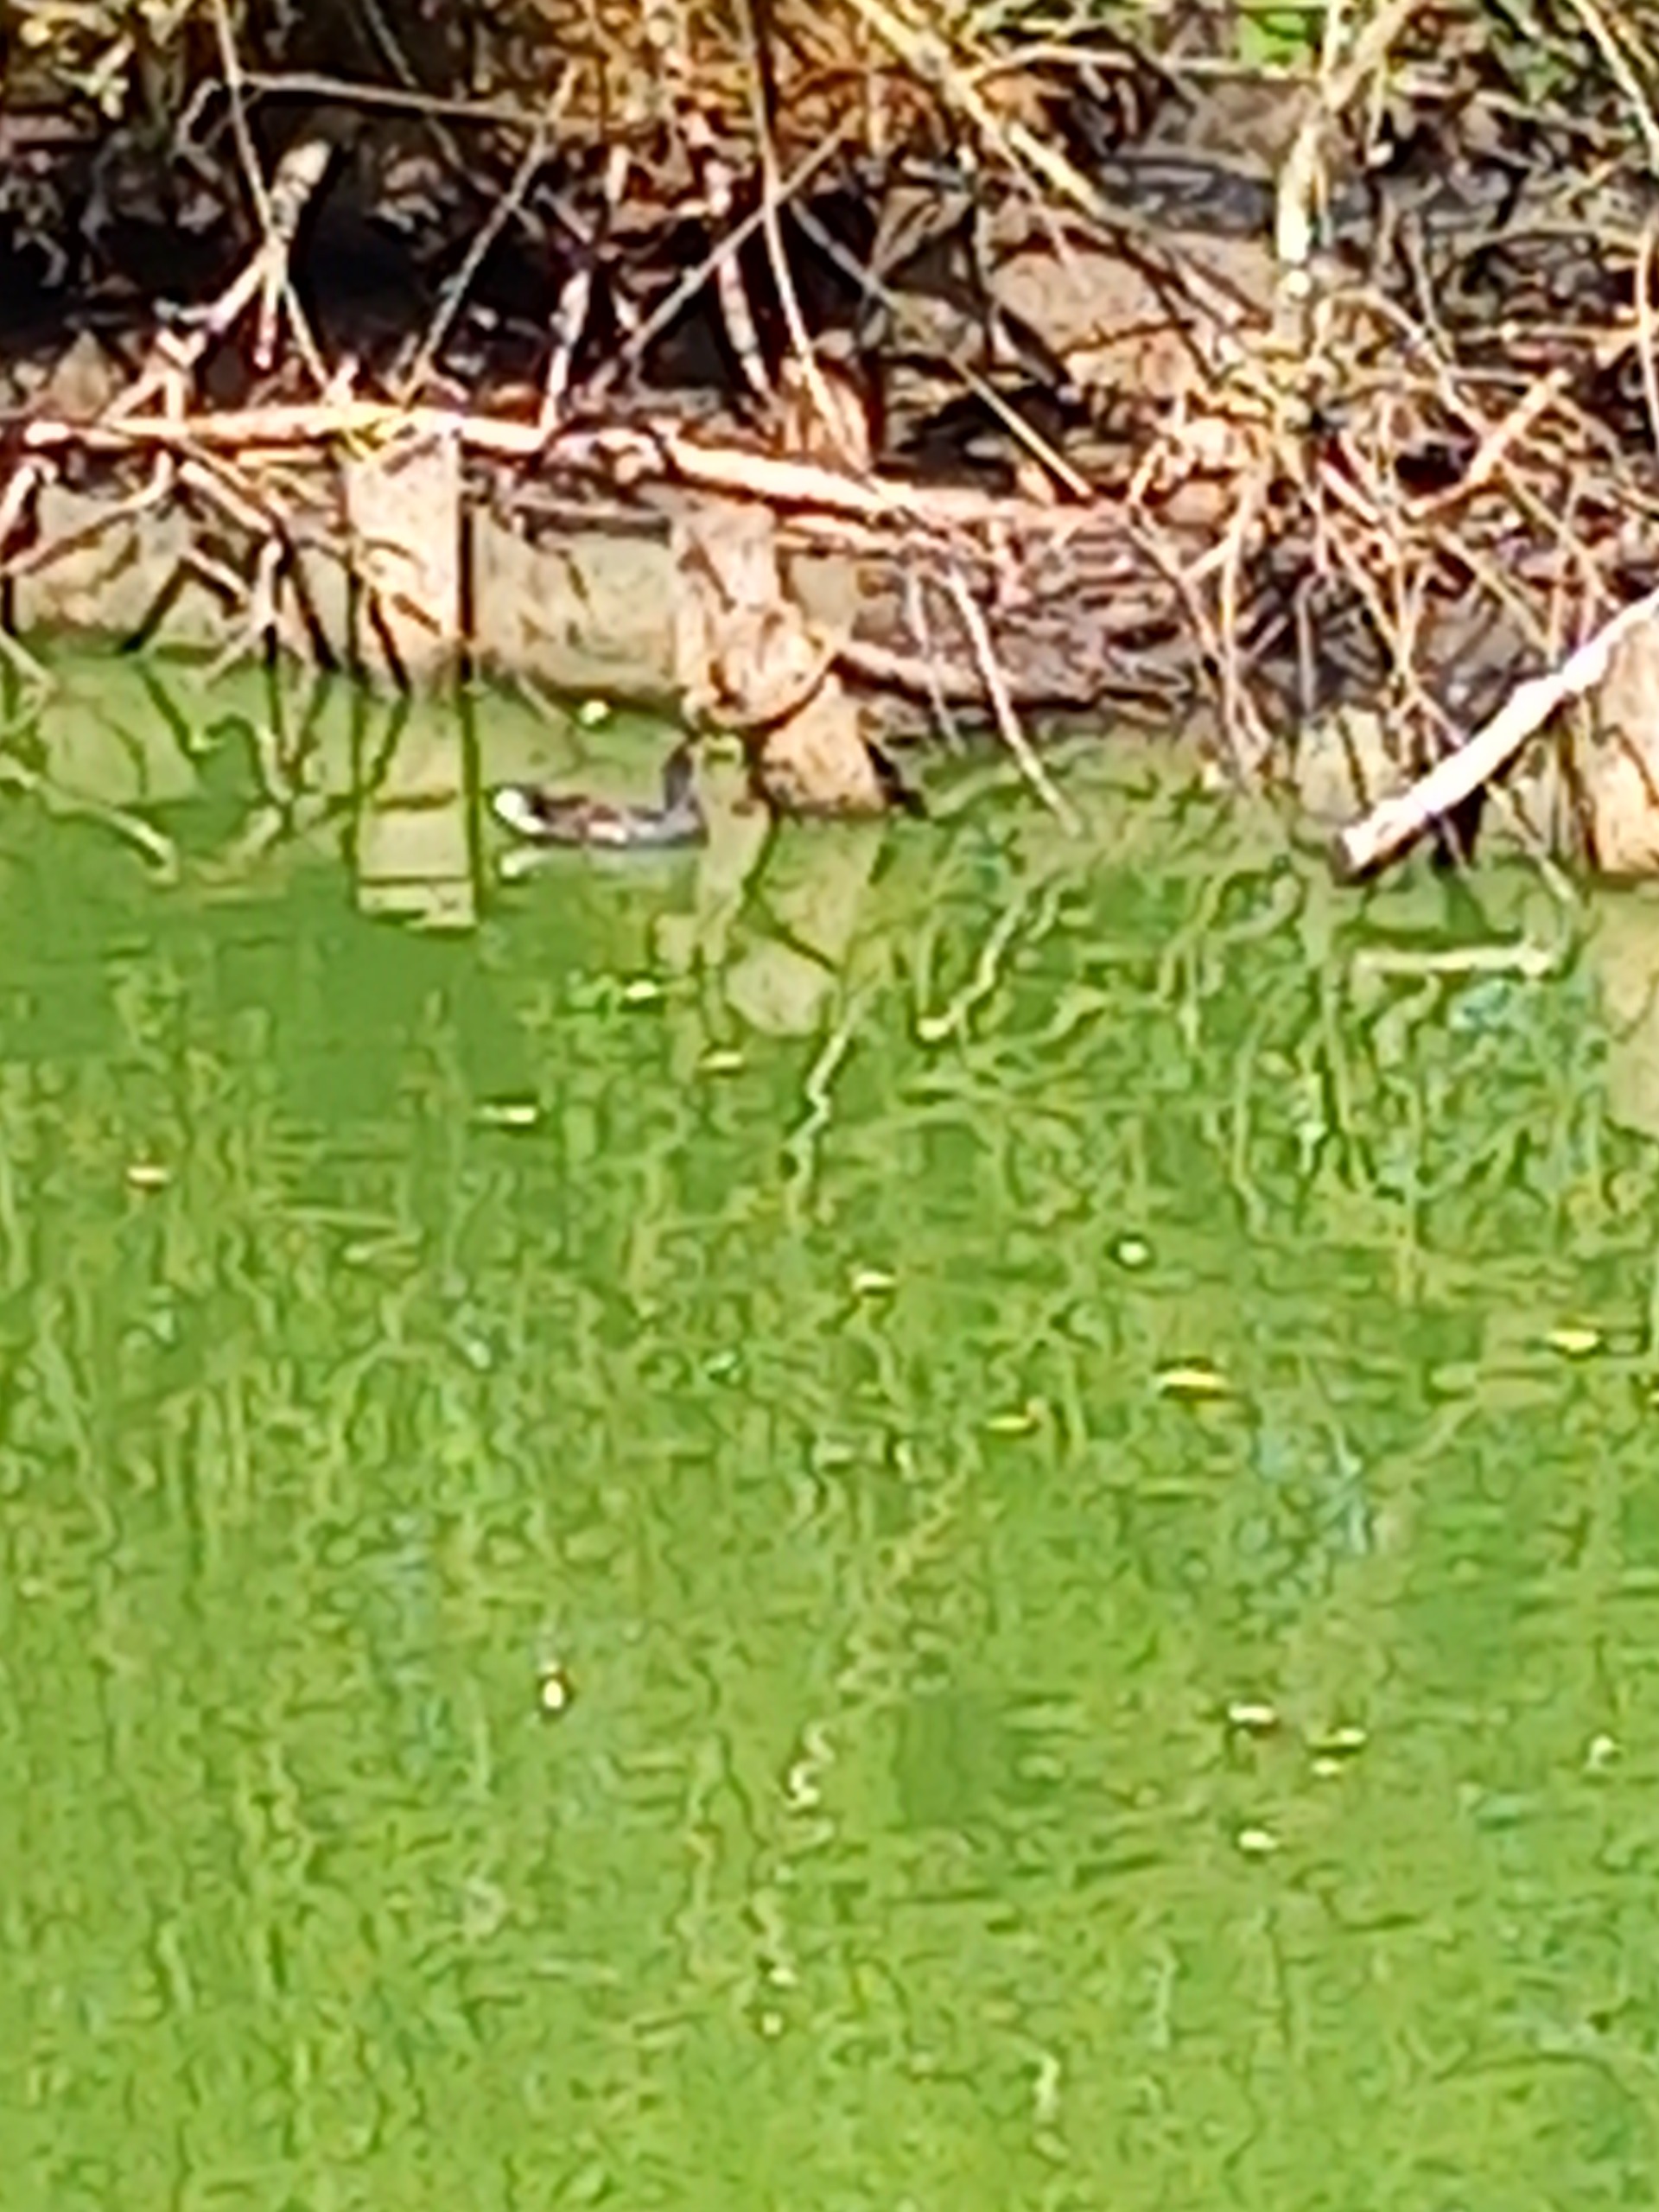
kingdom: Animalia
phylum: Chordata
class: Aves
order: Gruiformes
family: Rallidae
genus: Gallinula
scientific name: Gallinula chloropus
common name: Grønbenet rørhøne
